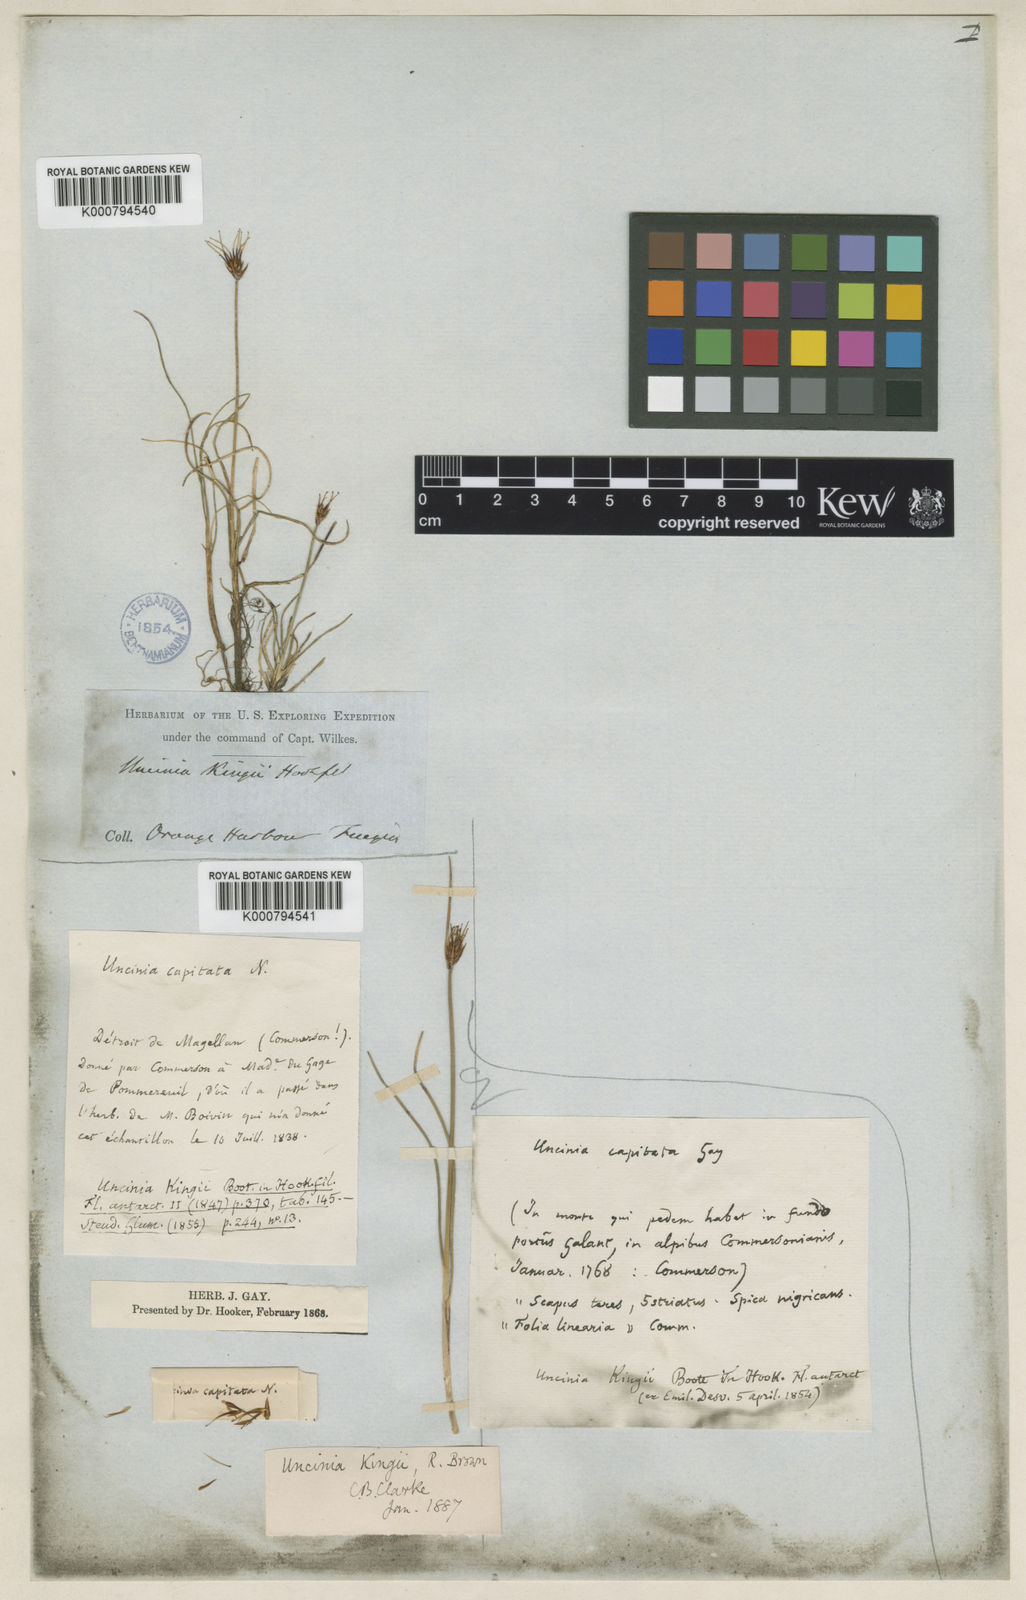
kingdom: Plantae
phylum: Tracheophyta
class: Liliopsida
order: Poales
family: Cyperaceae
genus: Carex
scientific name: Carex kingii
